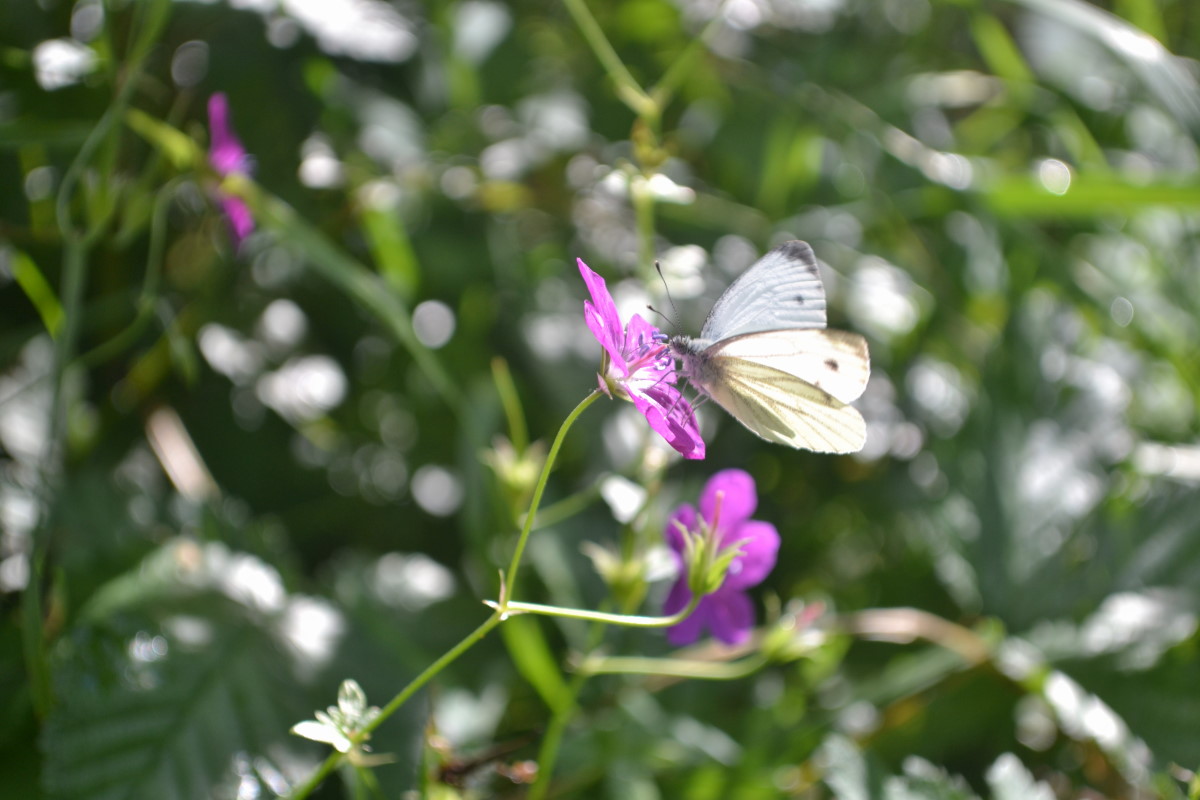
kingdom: Plantae
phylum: Tracheophyta
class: Magnoliopsida
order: Geraniales
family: Geraniaceae
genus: Geranium
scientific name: Geranium palustre
